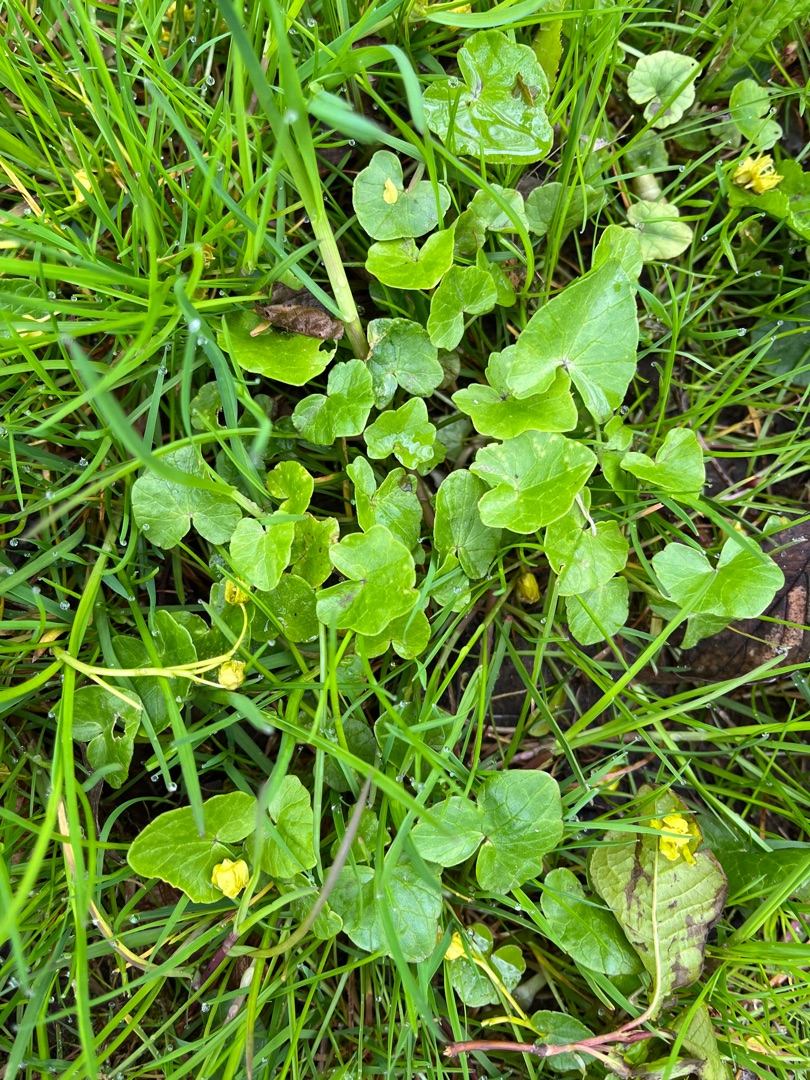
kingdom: Plantae
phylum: Tracheophyta
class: Magnoliopsida
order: Ranunculales
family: Ranunculaceae
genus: Ficaria
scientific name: Ficaria verna
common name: Vorterod
